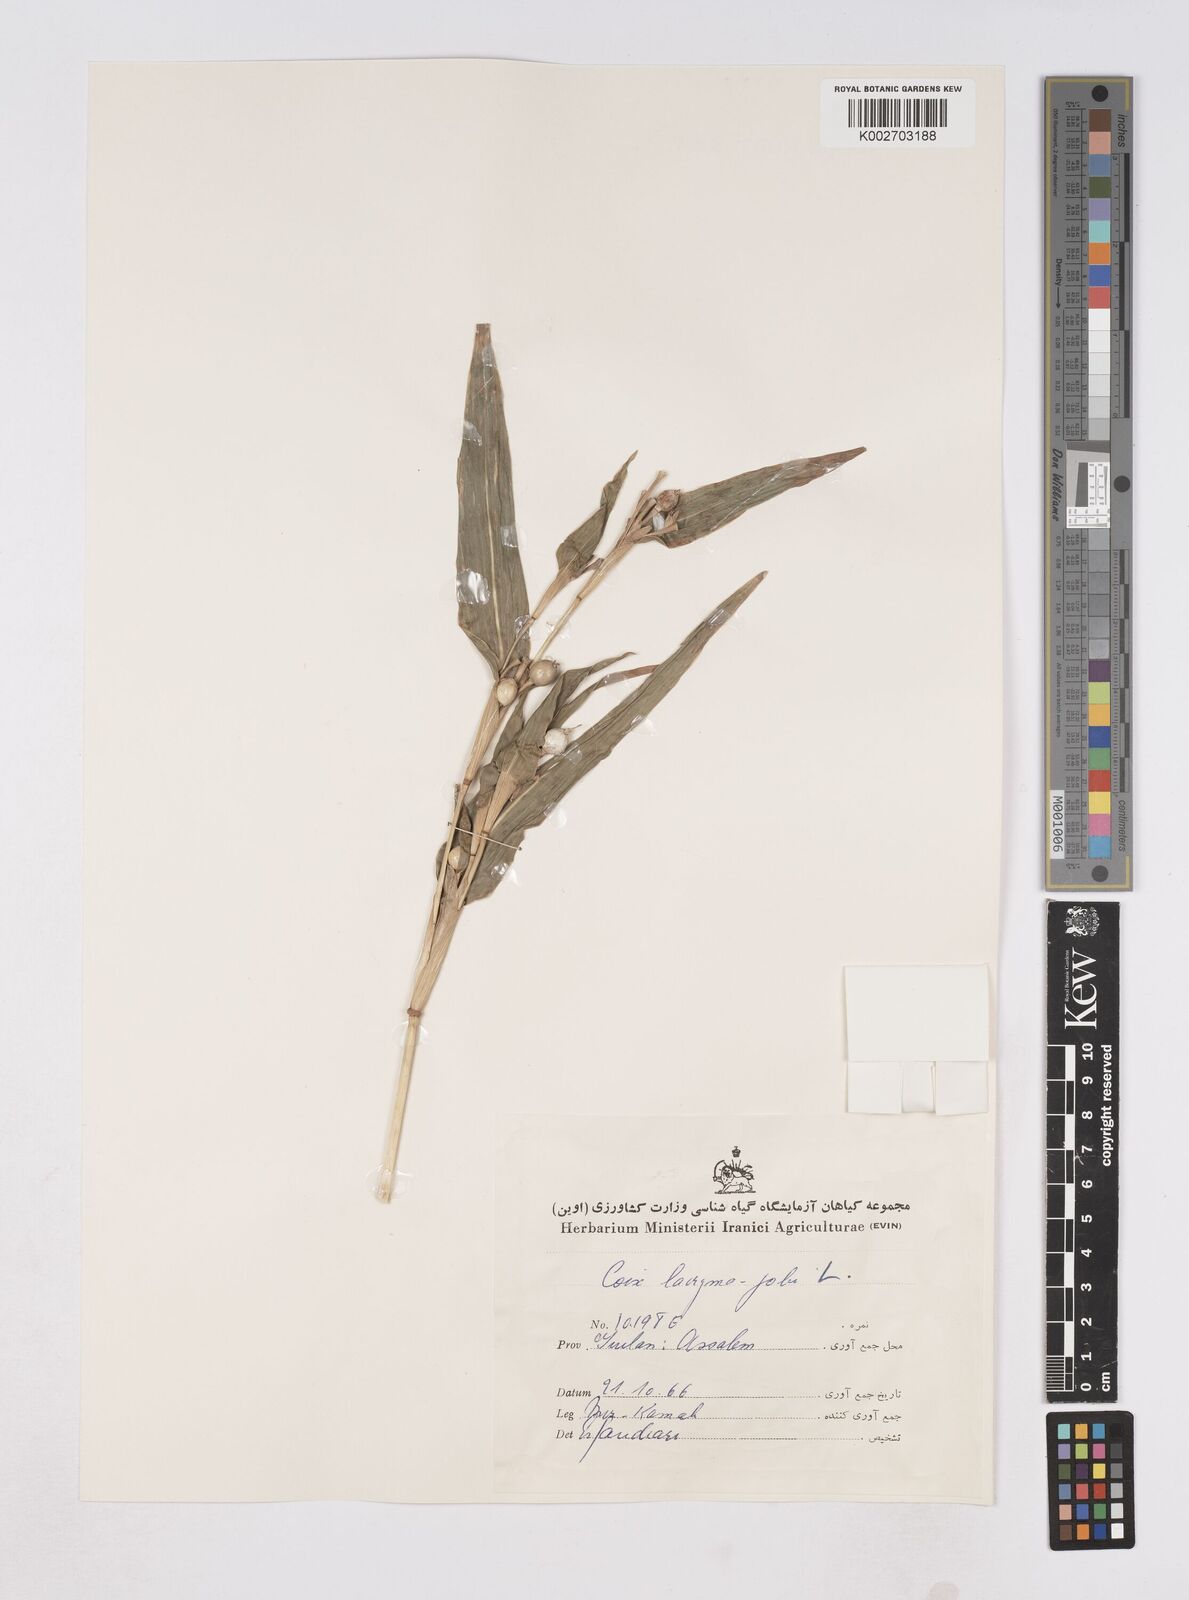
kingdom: Plantae
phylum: Tracheophyta
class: Liliopsida
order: Poales
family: Poaceae
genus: Coix
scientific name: Coix lacryma-jobi
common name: Job's tears
